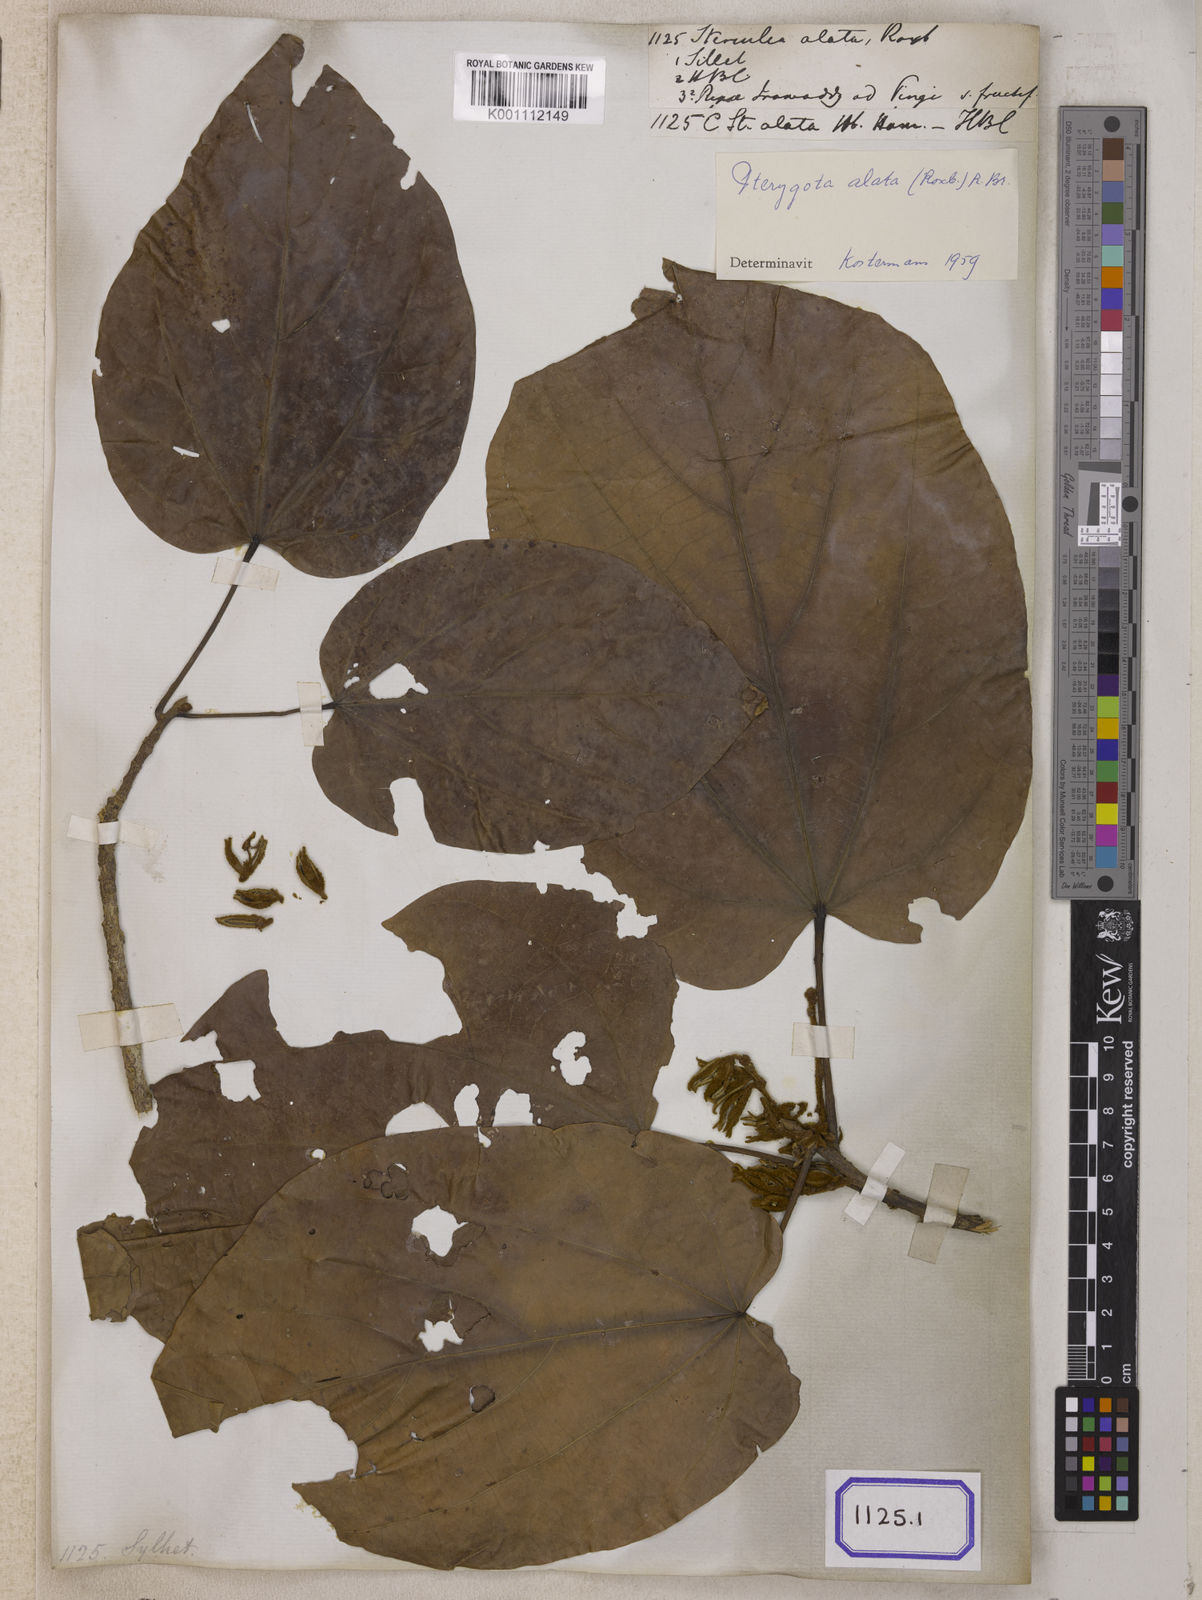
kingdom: Plantae
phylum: Tracheophyta
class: Magnoliopsida
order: Malvales
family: Malvaceae
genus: Pterygota
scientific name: Pterygota alata
